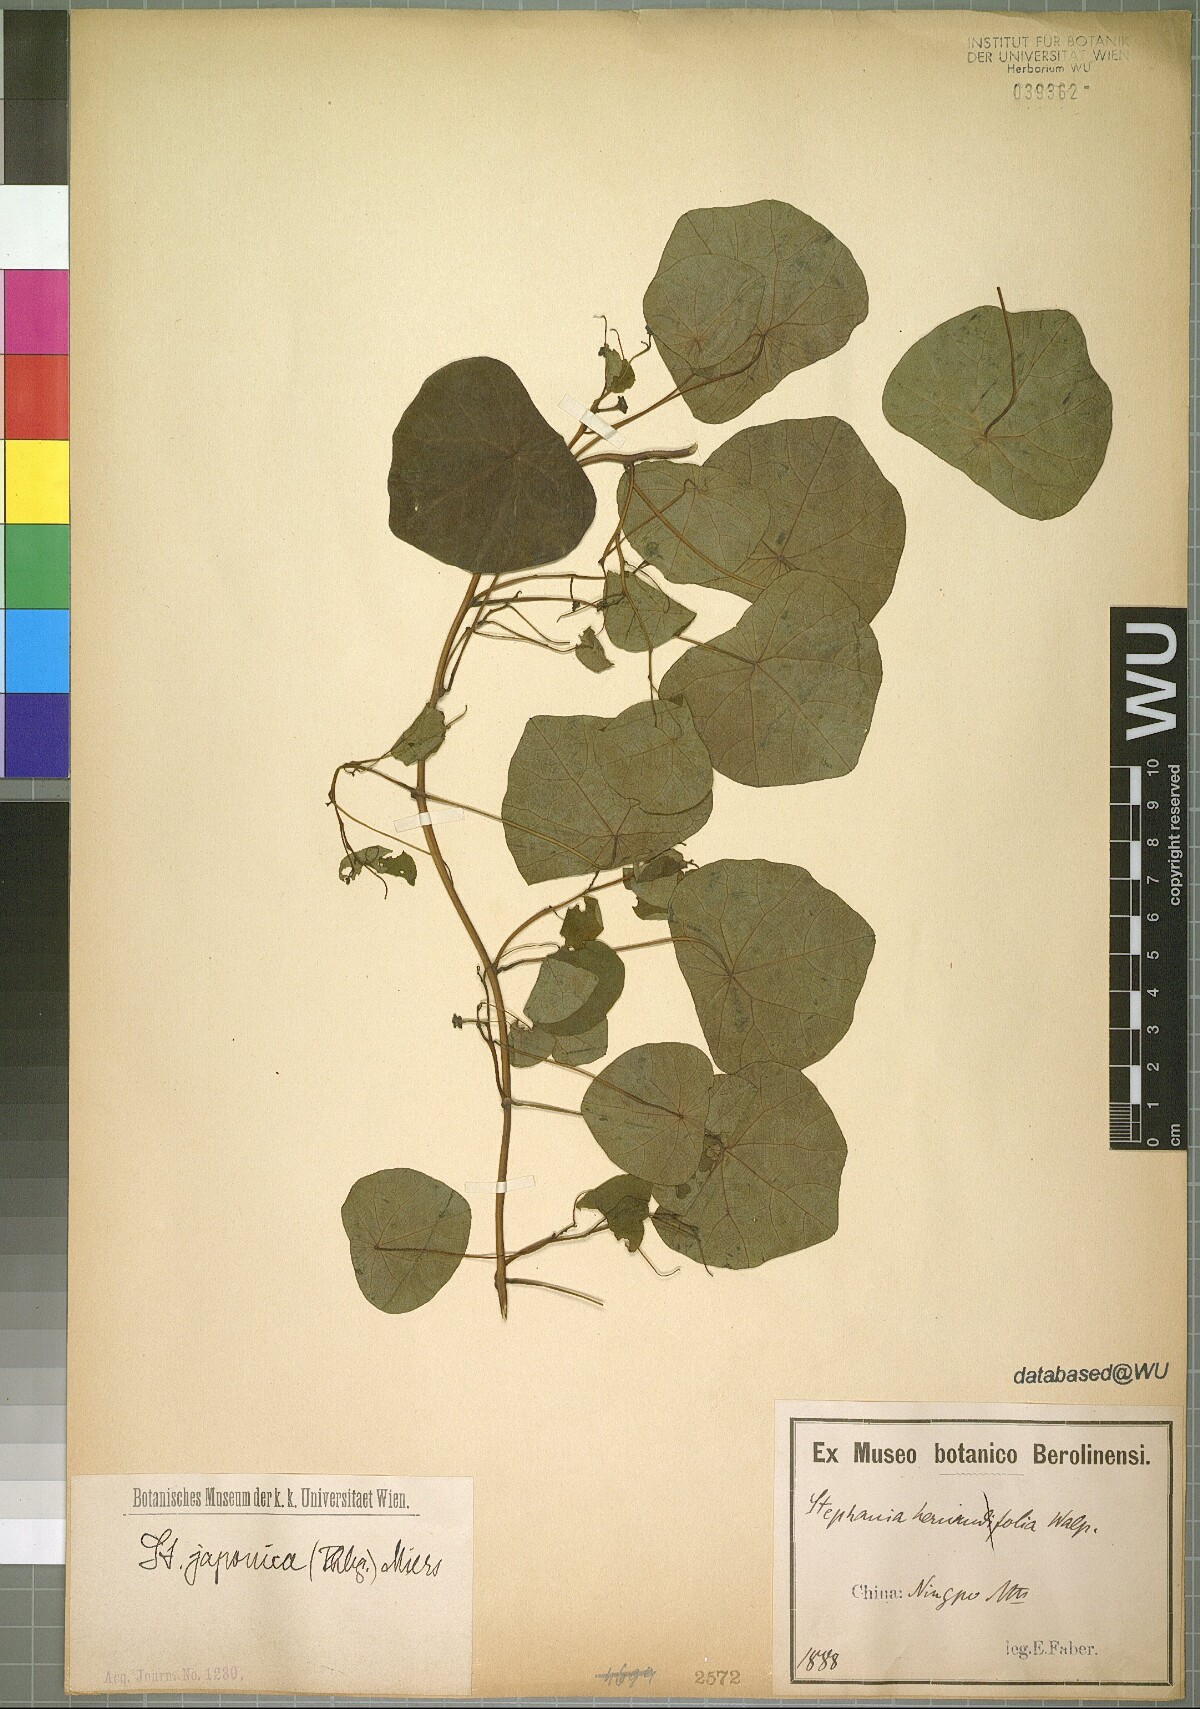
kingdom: Plantae
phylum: Tracheophyta
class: Magnoliopsida
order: Ranunculales
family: Menispermaceae
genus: Stephania
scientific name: Stephania japonica
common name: Snake vine
